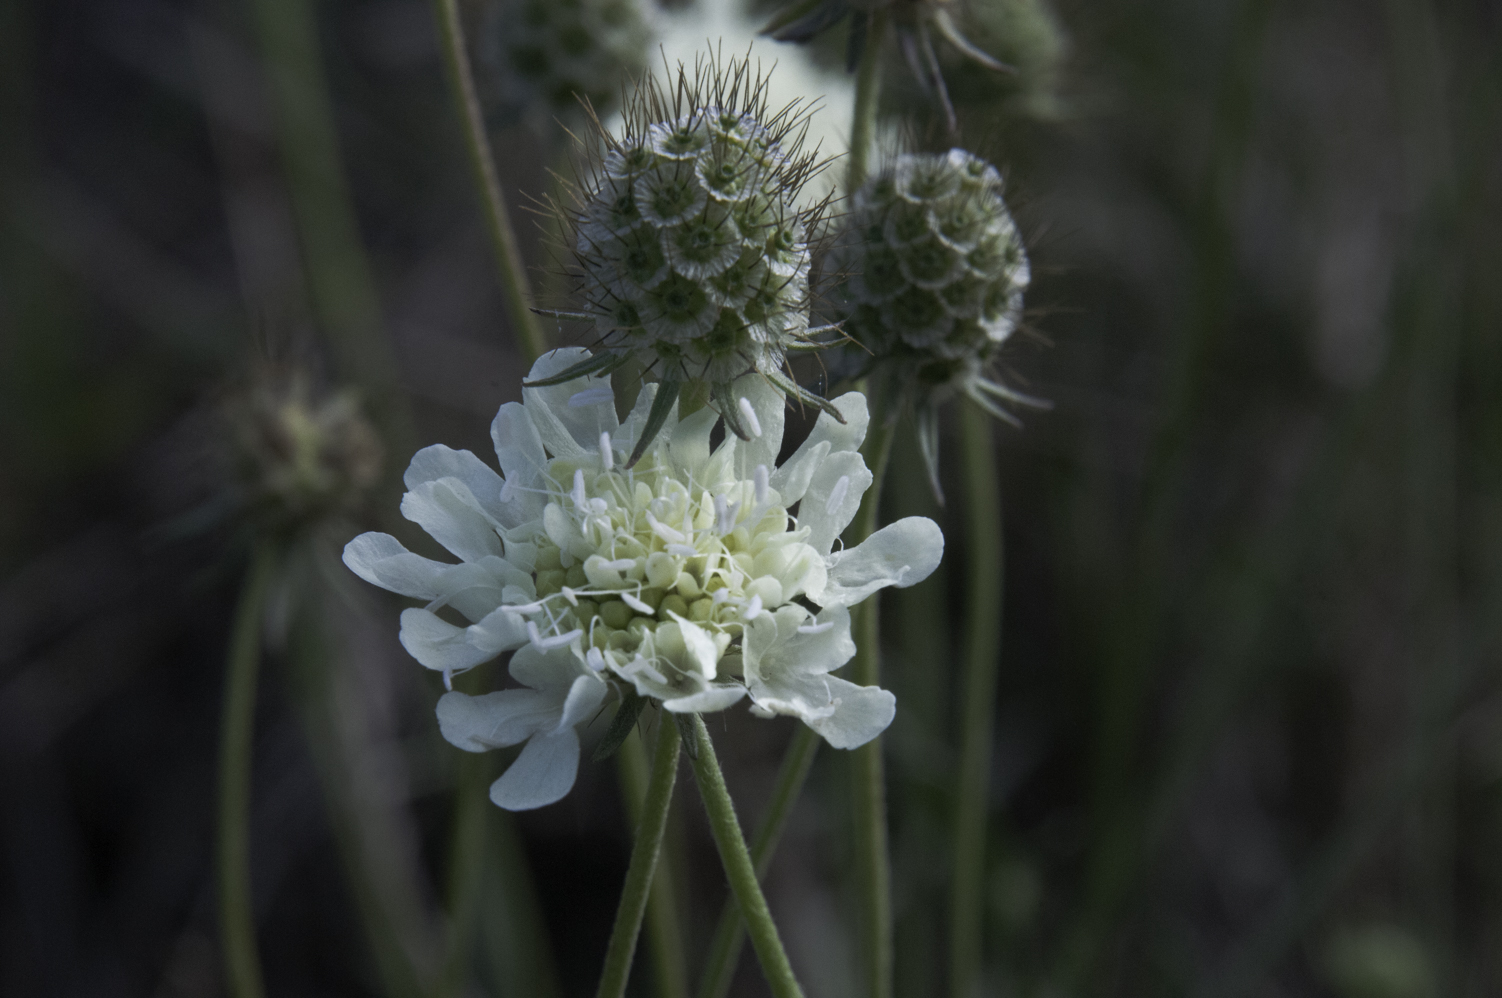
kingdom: Plantae
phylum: Tracheophyta
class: Magnoliopsida
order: Dipsacales
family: Caprifoliaceae
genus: Scabiosa
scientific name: Scabiosa ochroleuca
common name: Cream pincushions
